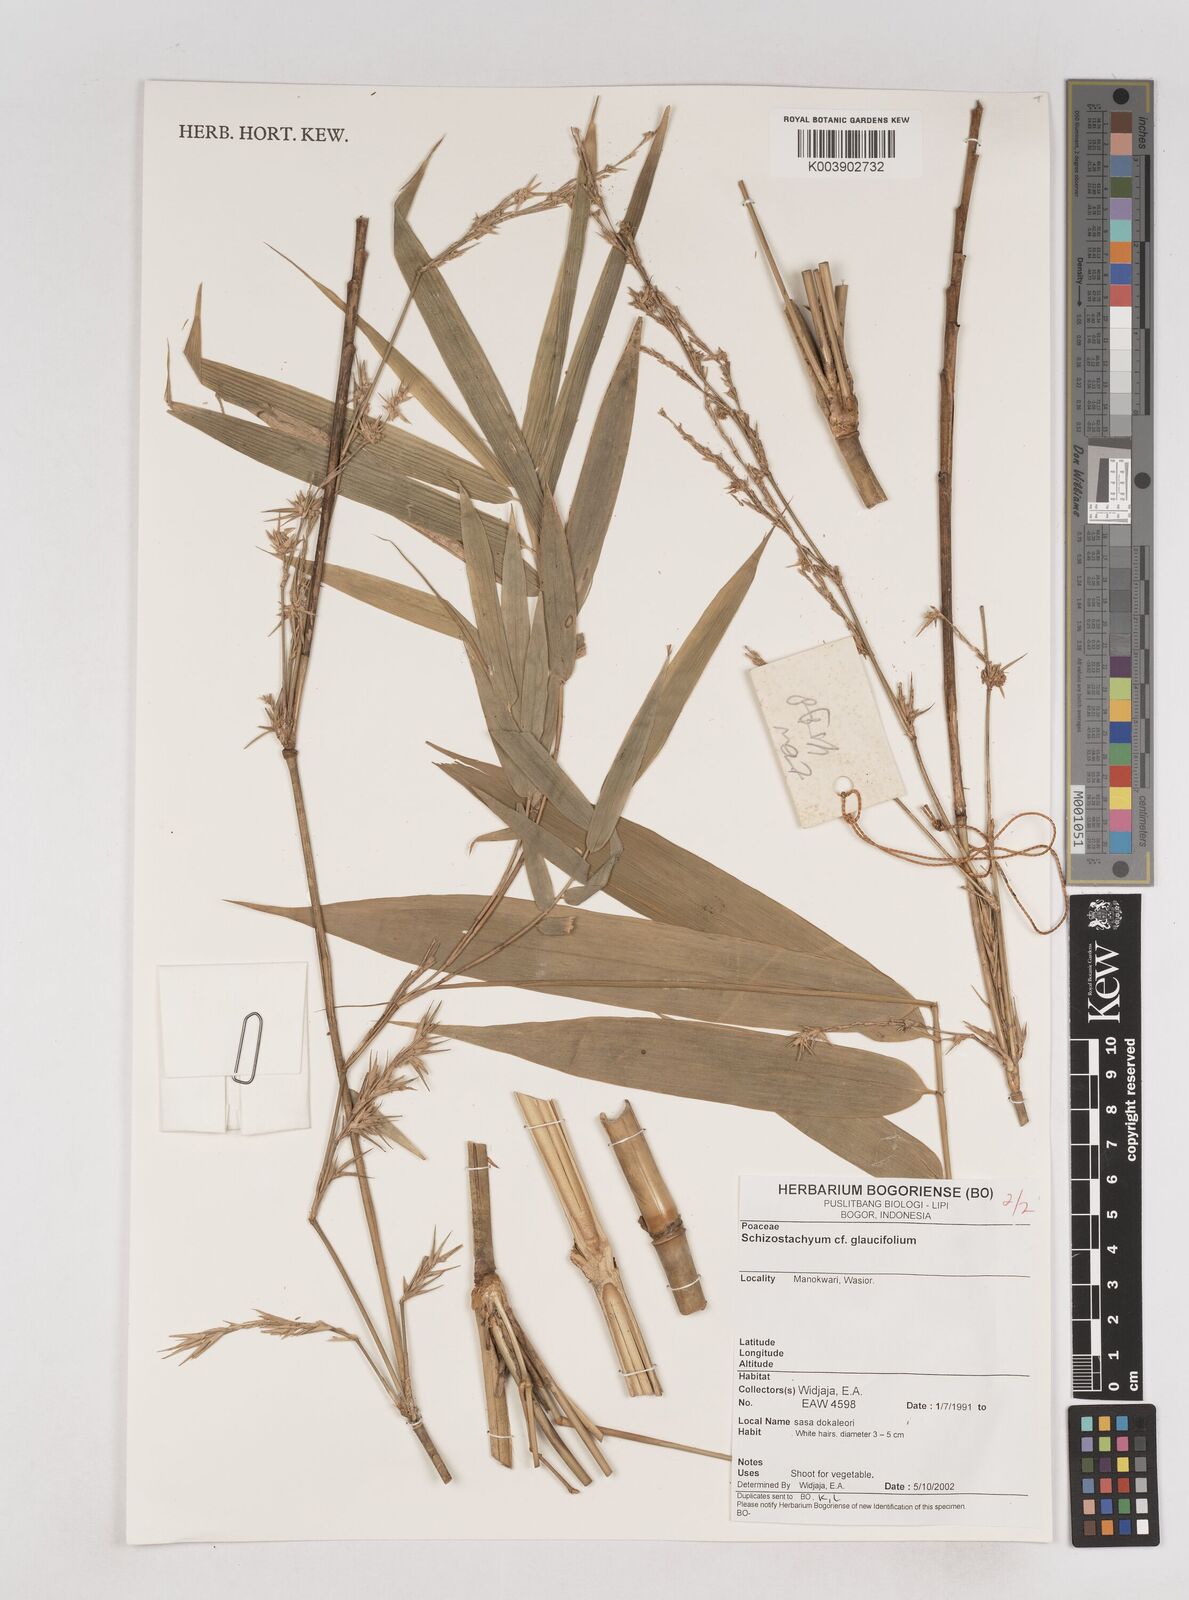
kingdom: Plantae
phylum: Tracheophyta
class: Liliopsida
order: Poales
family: Poaceae
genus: Schizostachyum
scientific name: Schizostachyum glaucifolium
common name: Polynesian 'ohe
